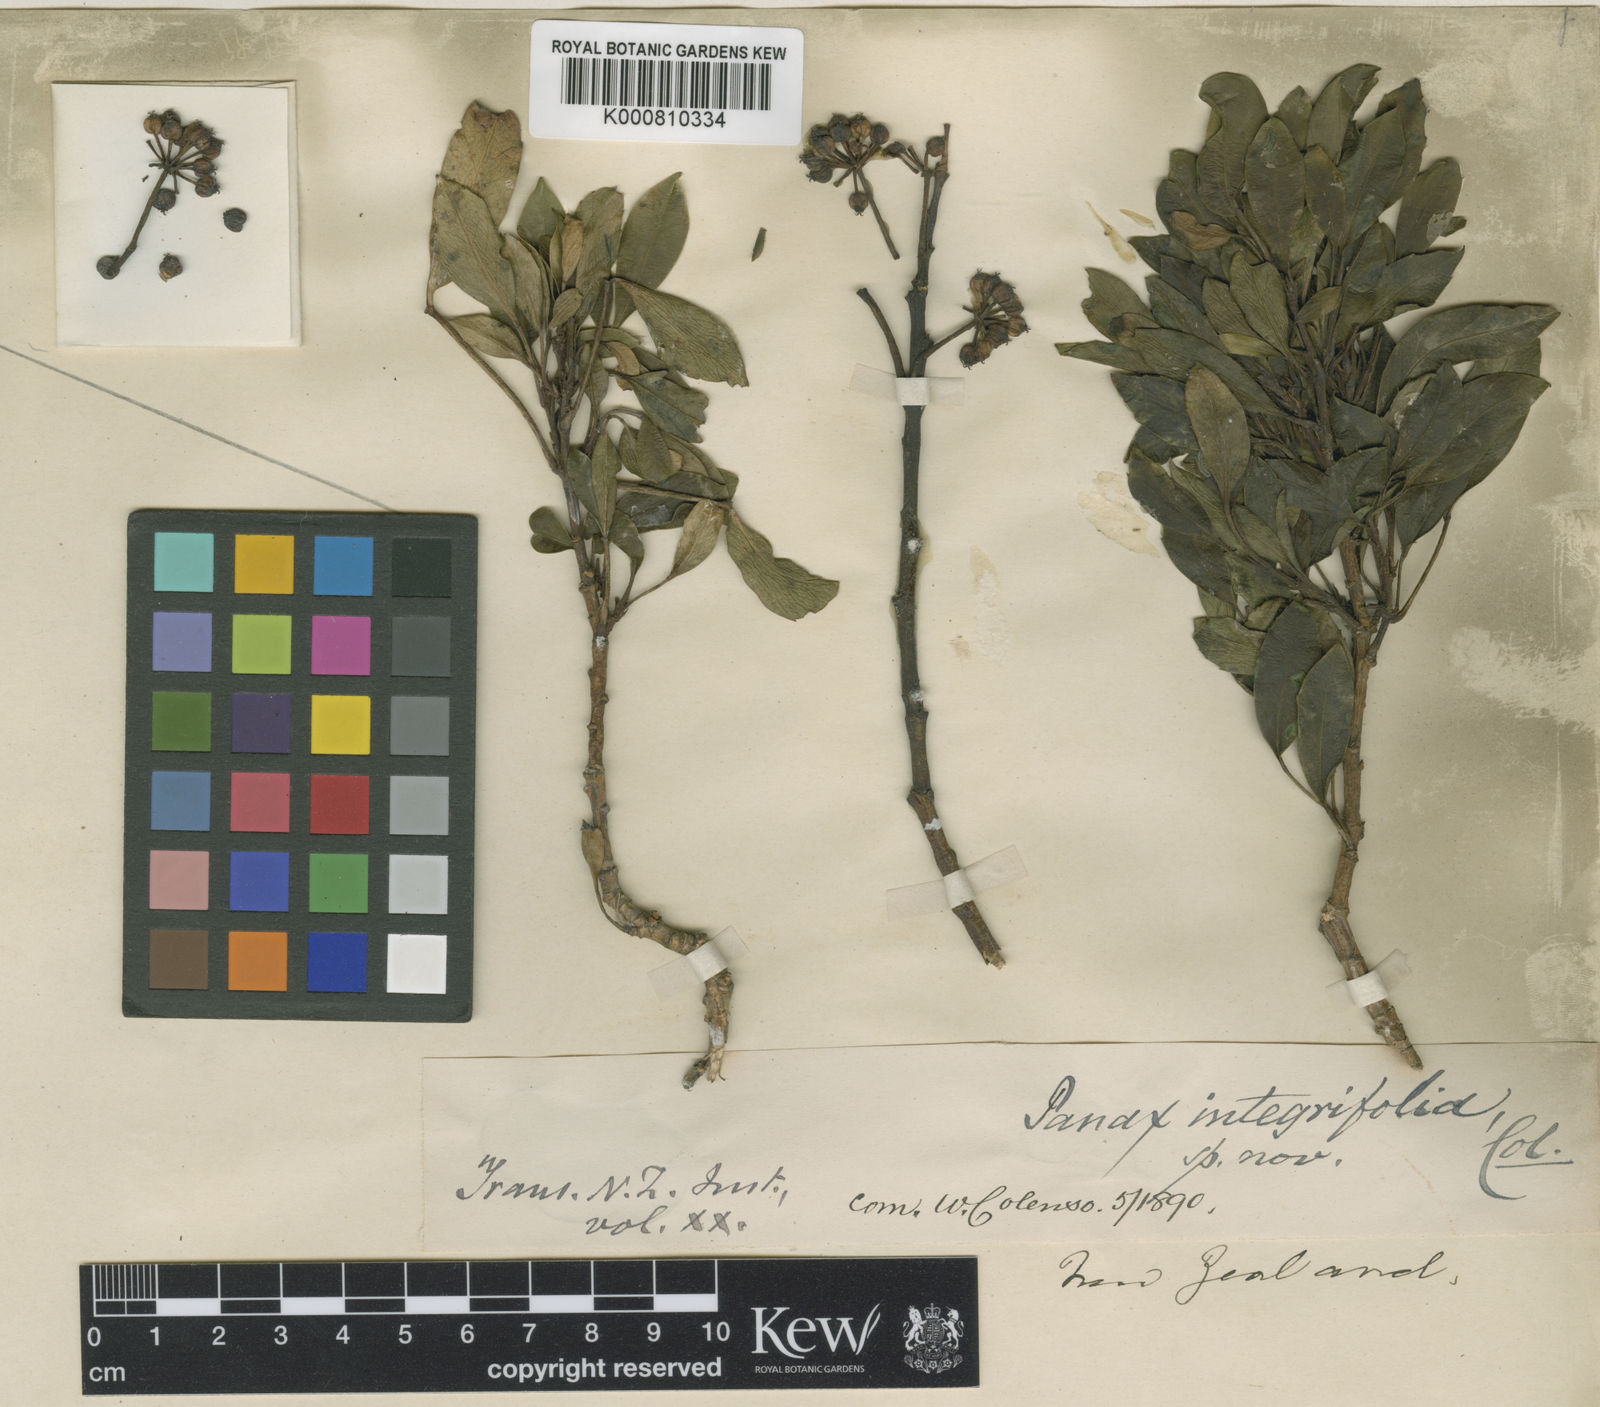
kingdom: Plantae
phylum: Tracheophyta
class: Magnoliopsida
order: Apiales
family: Araliaceae
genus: Raukaua
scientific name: Raukaua simplex
